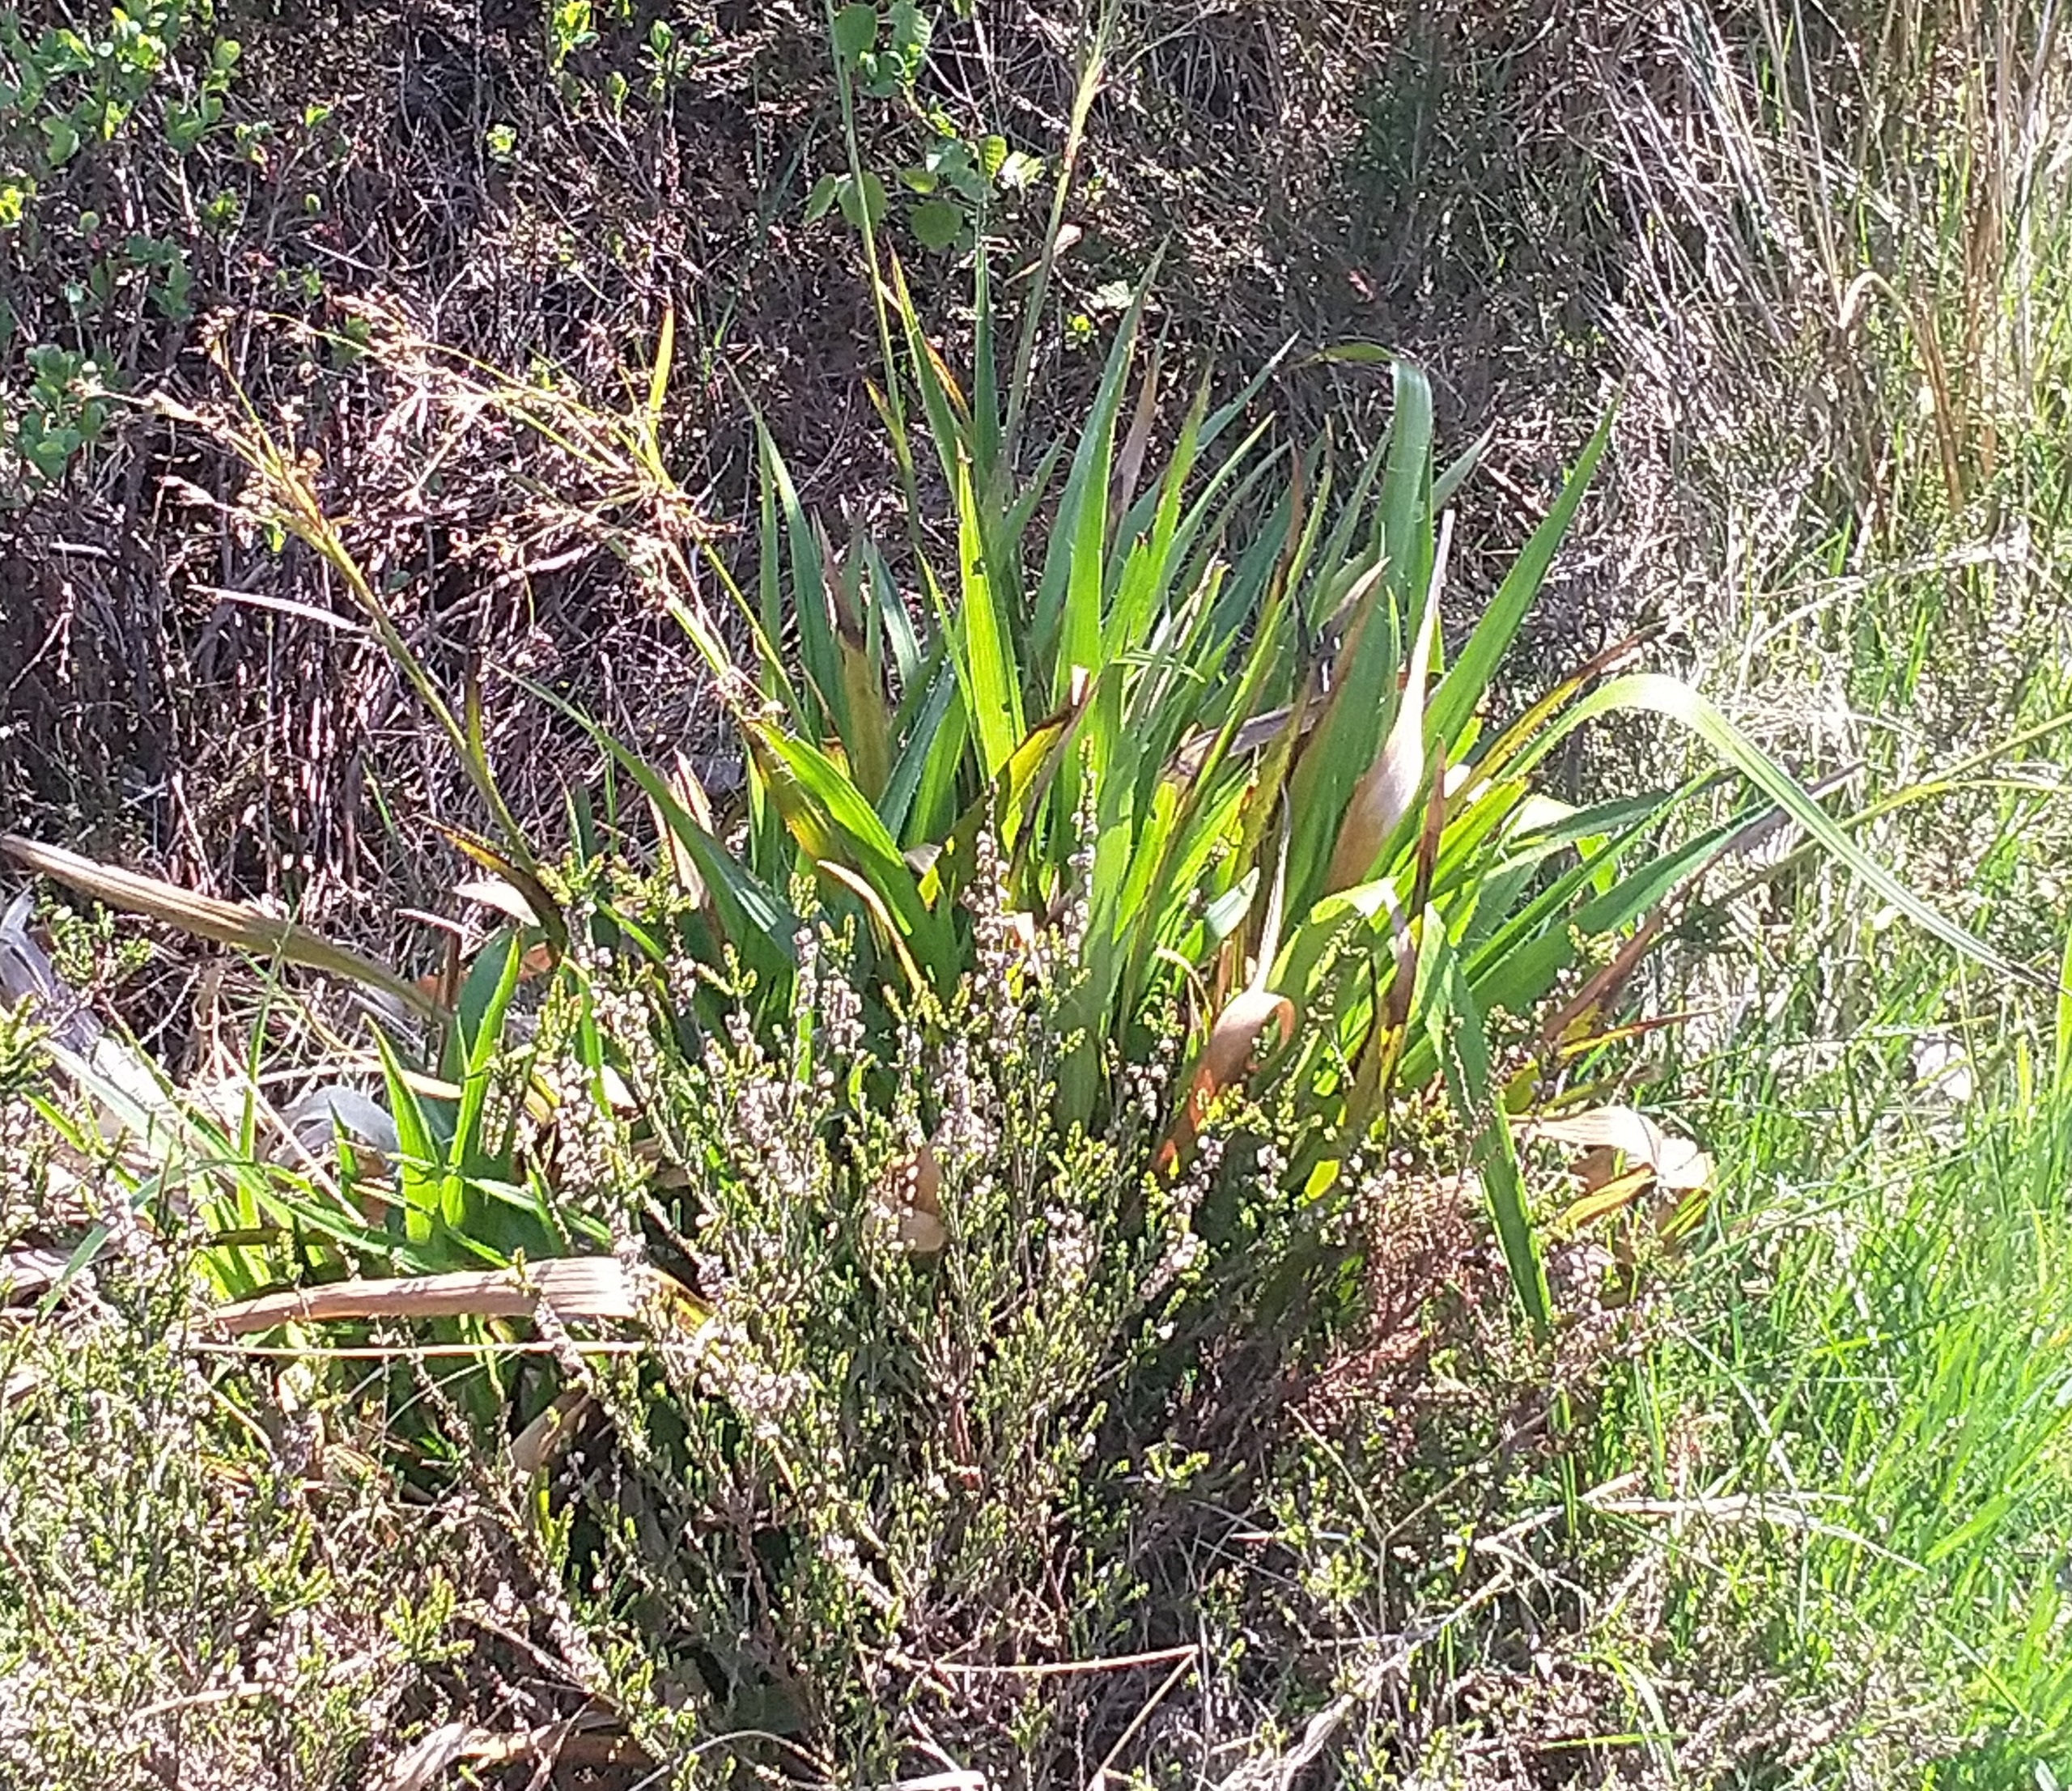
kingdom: Plantae
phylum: Tracheophyta
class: Liliopsida
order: Poales
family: Juncaceae
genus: Luzula
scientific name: Luzula sylvatica
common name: Stor frytle
